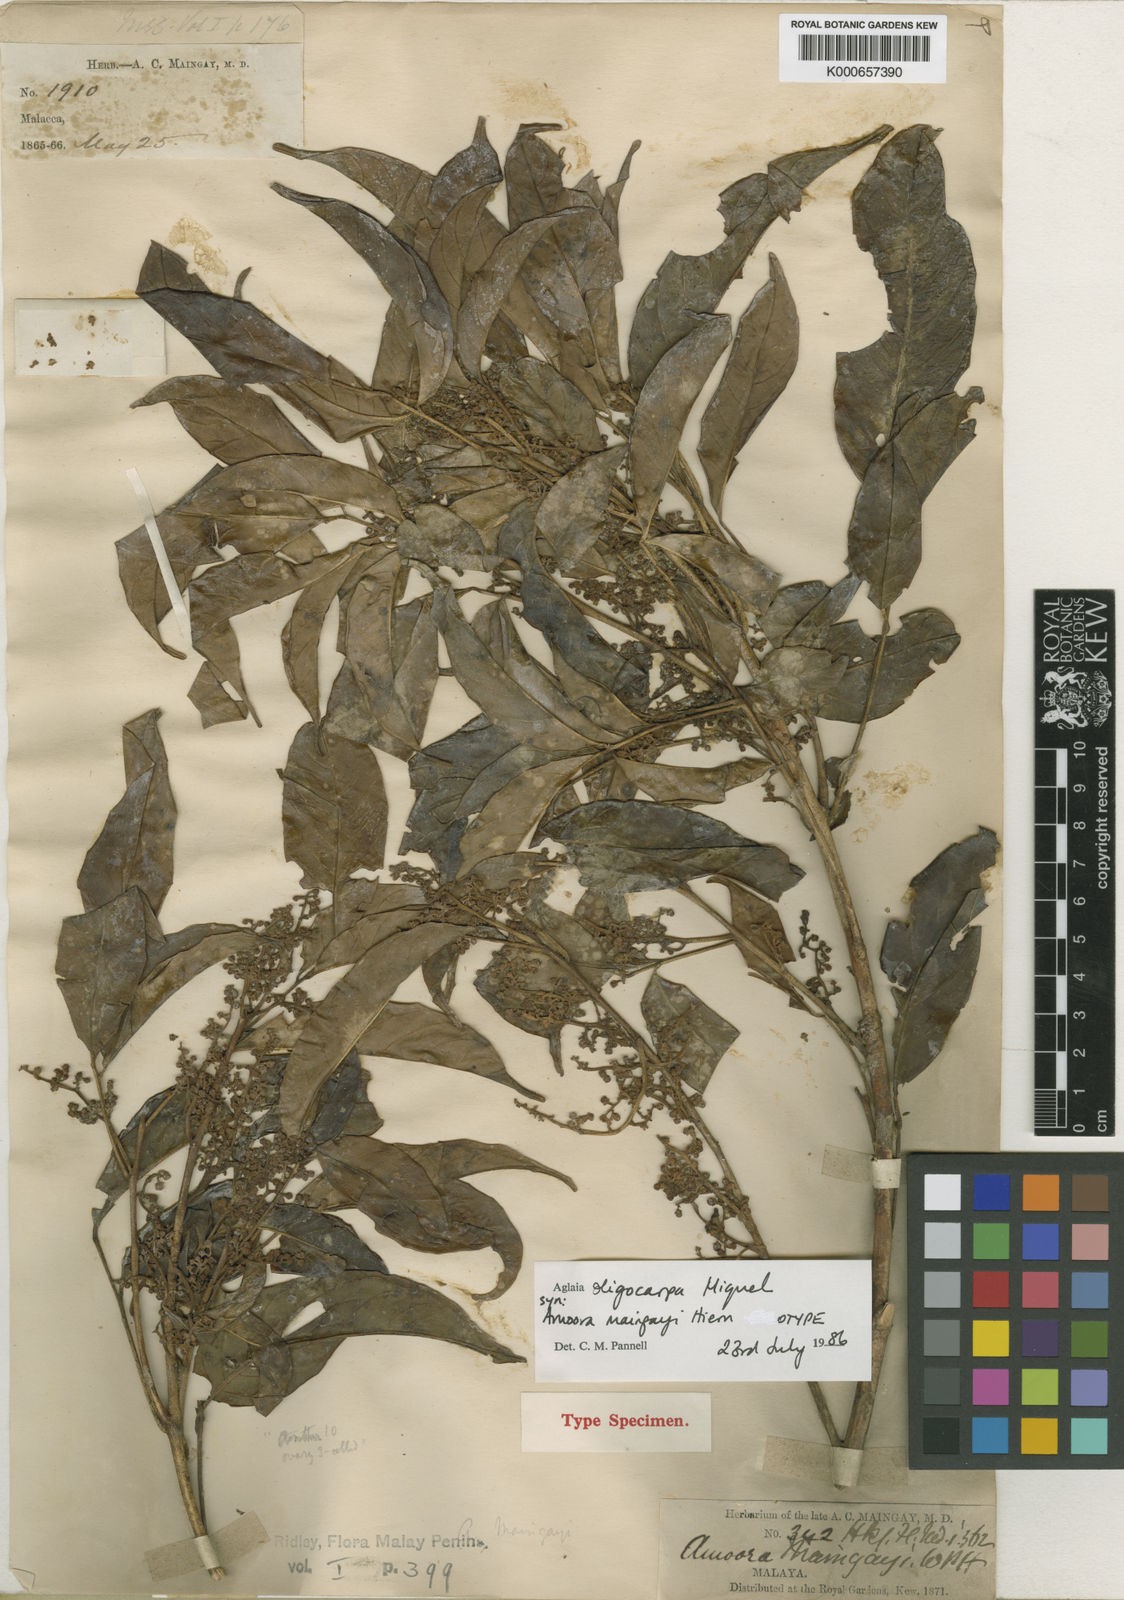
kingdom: Plantae
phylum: Tracheophyta
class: Magnoliopsida
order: Sapindales
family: Meliaceae
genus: Aglaia
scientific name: Aglaia lawii
